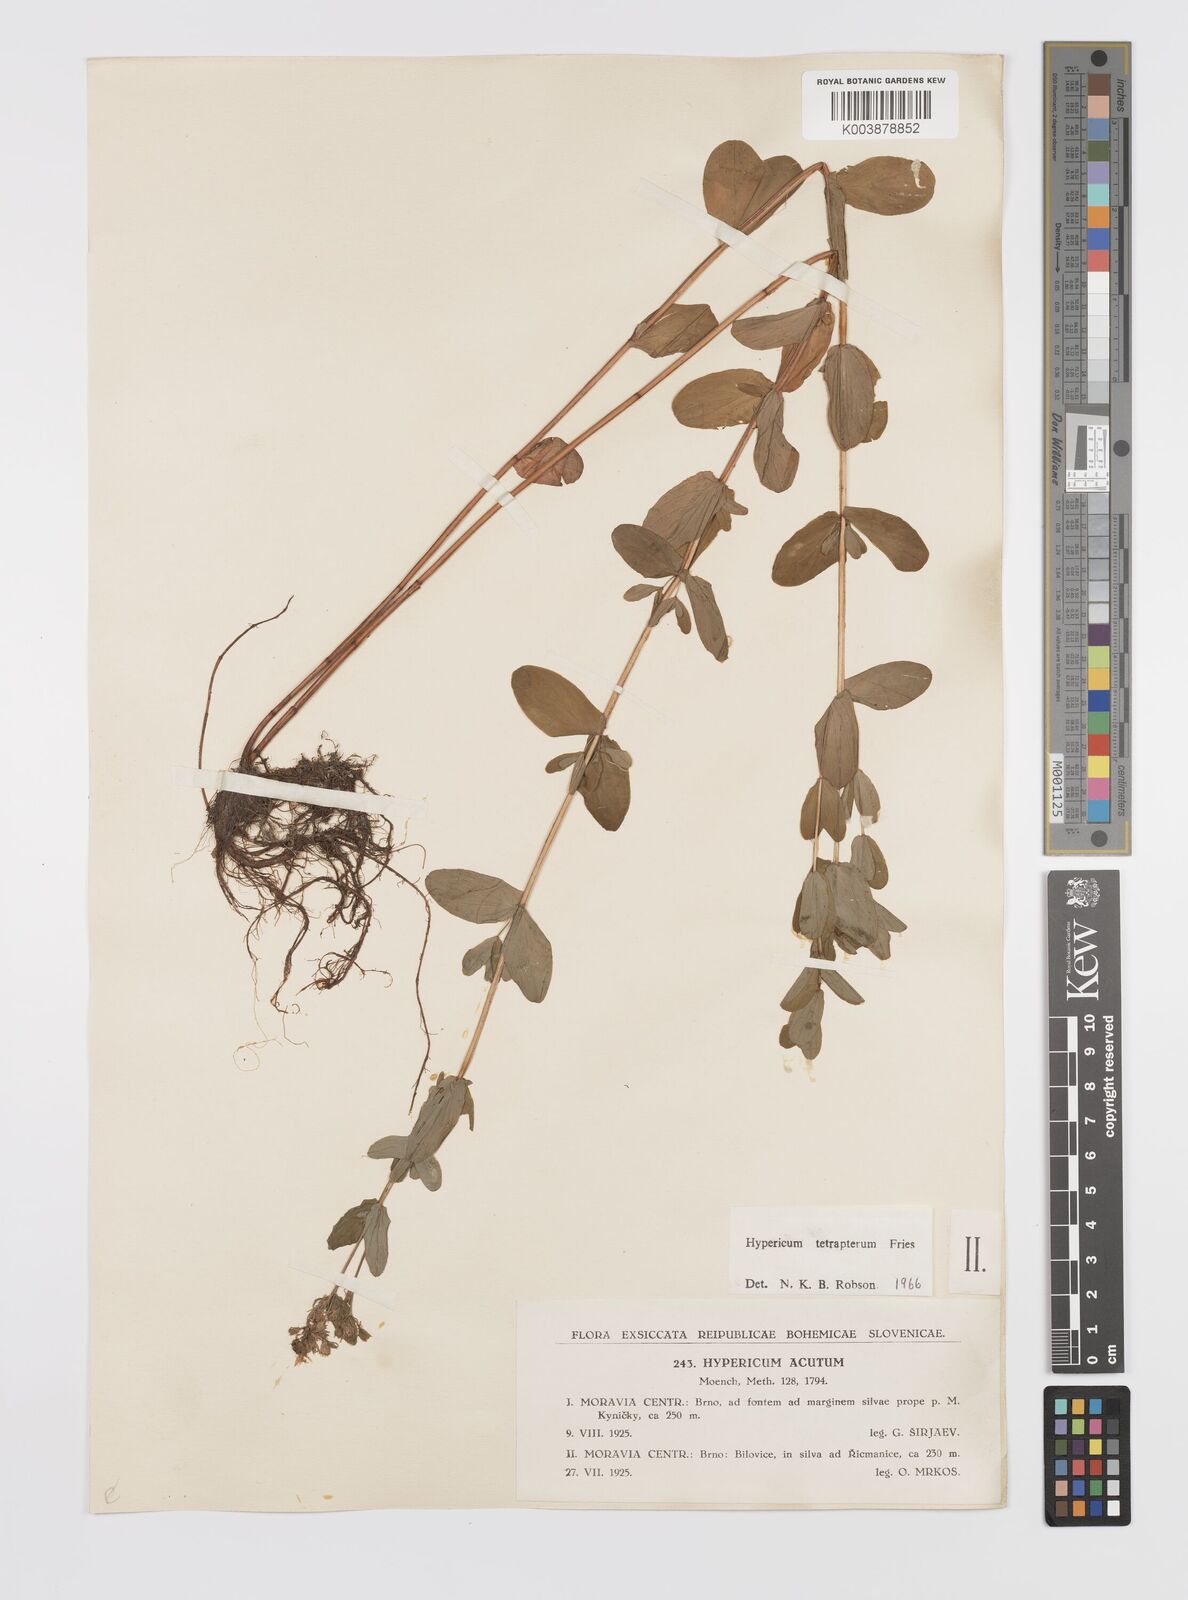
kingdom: Plantae
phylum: Tracheophyta
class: Magnoliopsida
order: Malpighiales
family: Hypericaceae
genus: Hypericum
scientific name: Hypericum tetrapterum
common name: Square-stalked st. john's-wort
